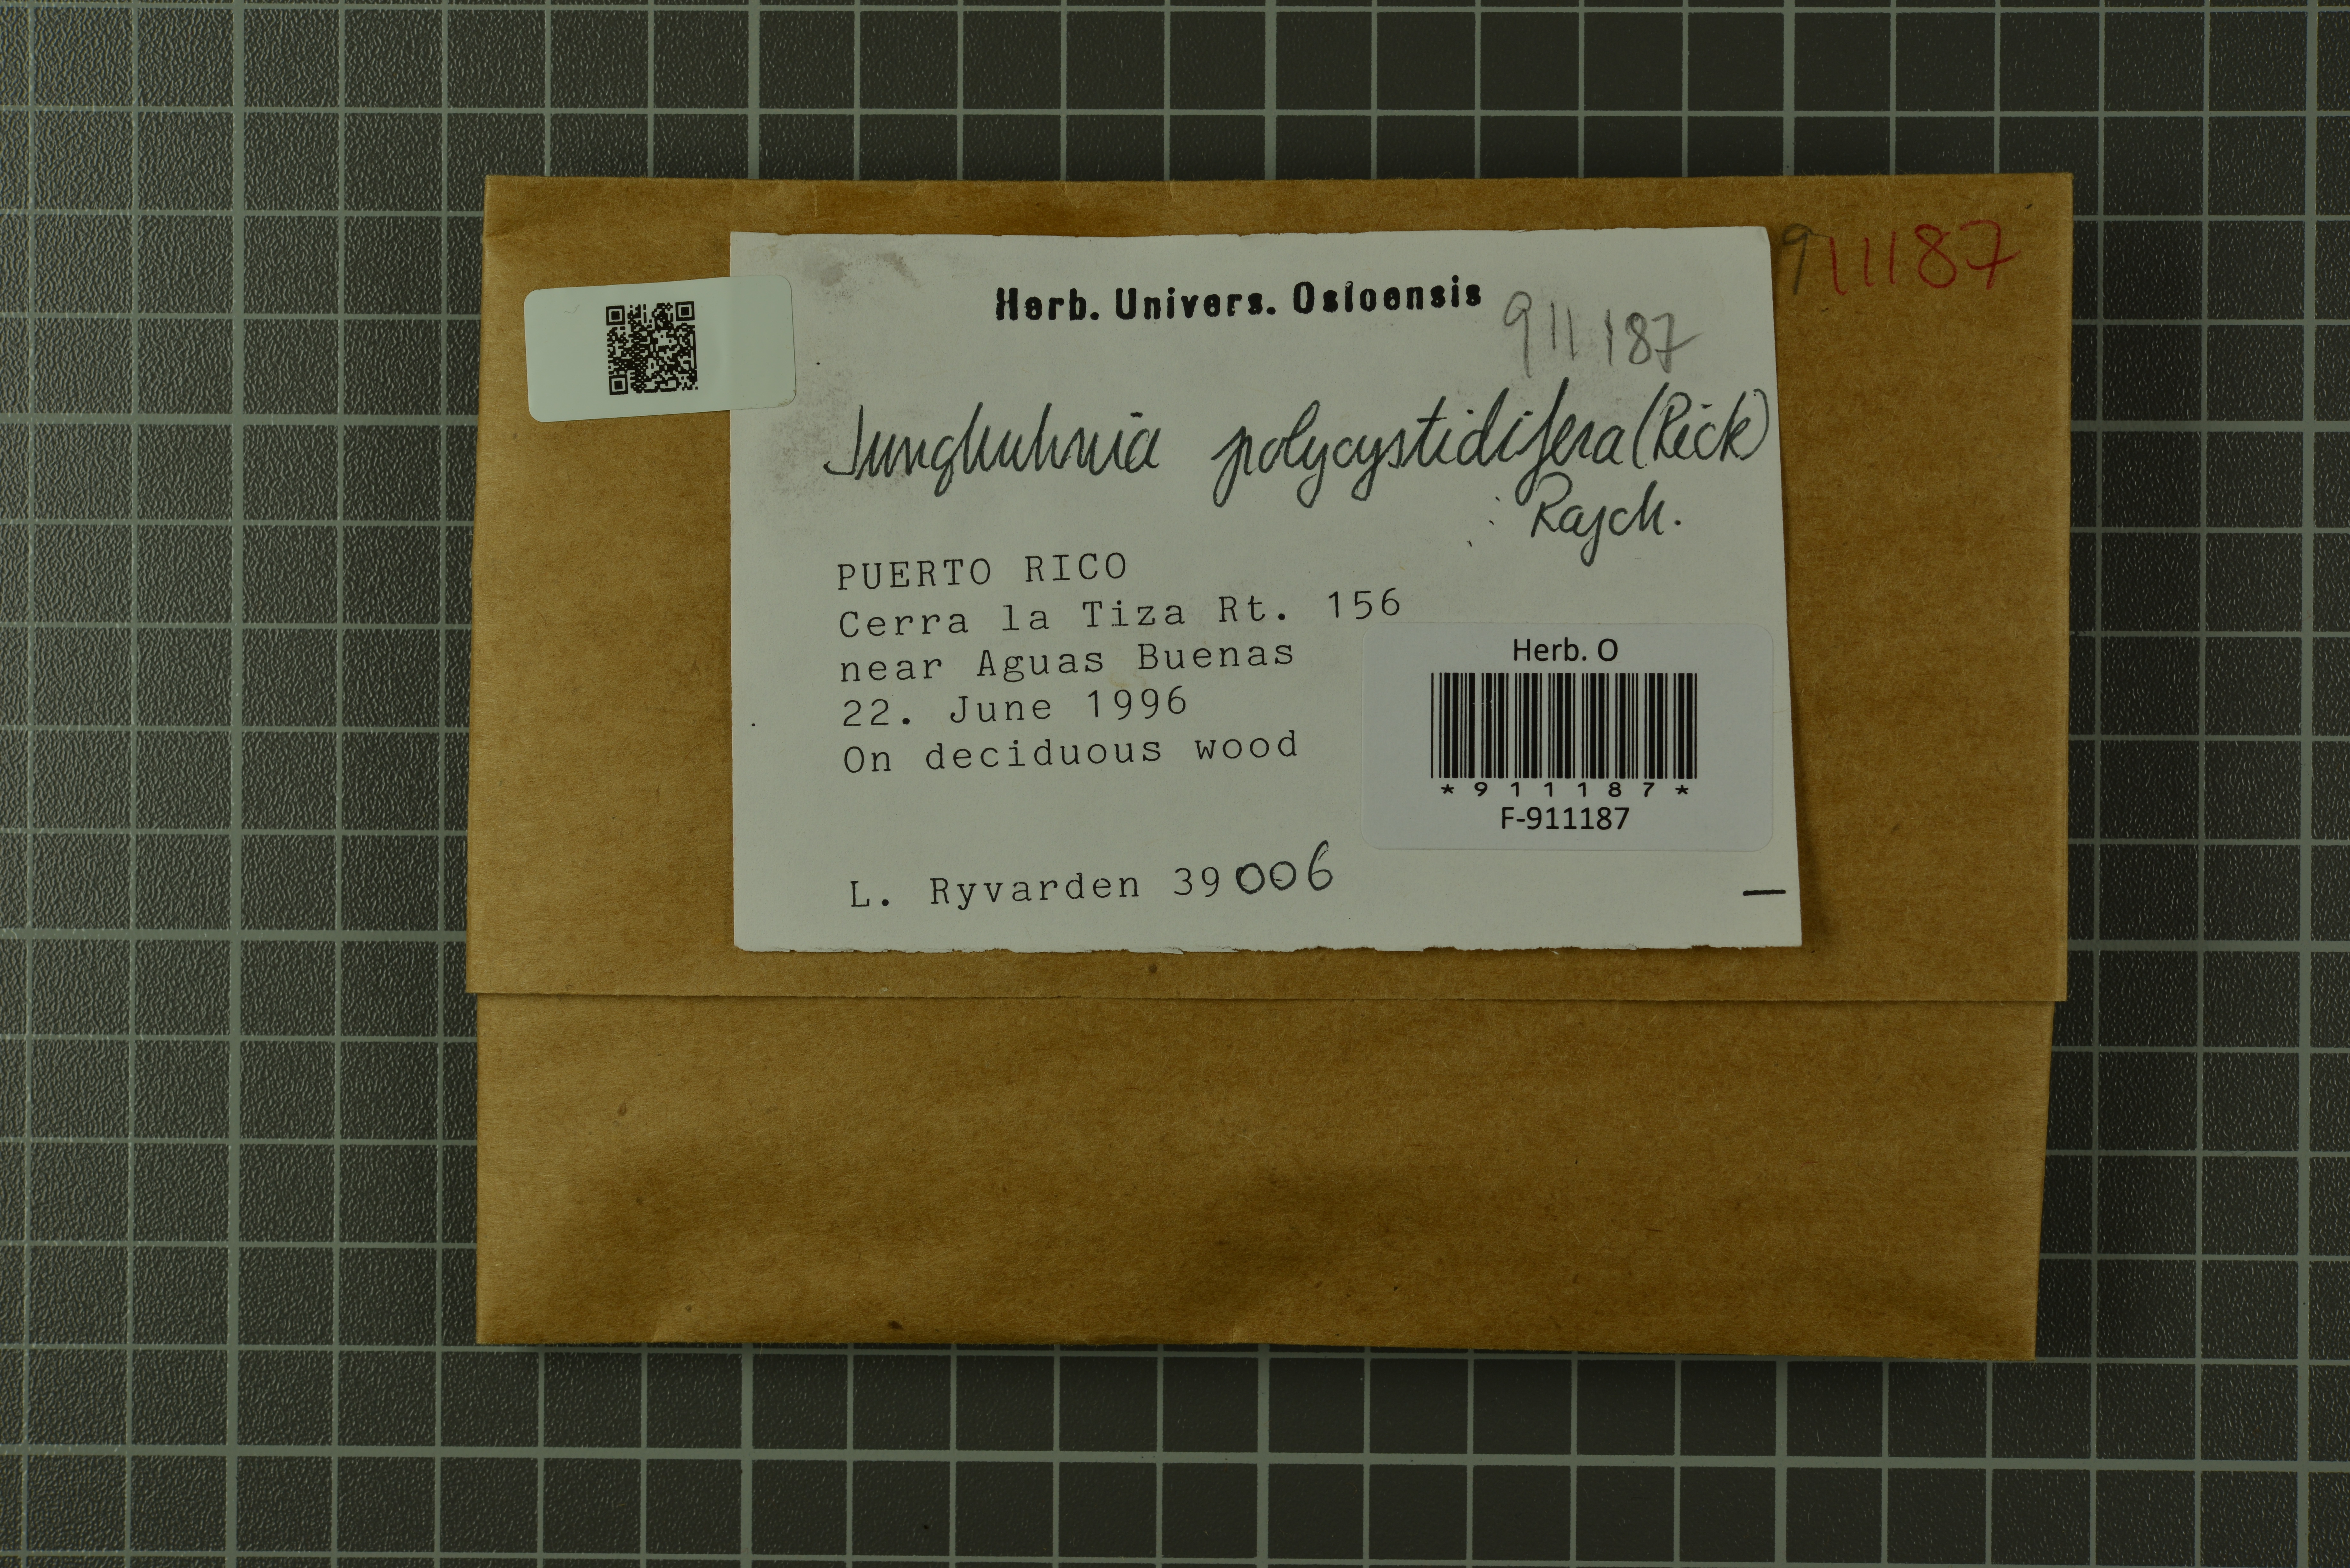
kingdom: Fungi
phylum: Basidiomycota
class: Agaricomycetes
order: Polyporales
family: Steccherinaceae
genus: Steccherinum
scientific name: Steccherinum polycystidiferum
